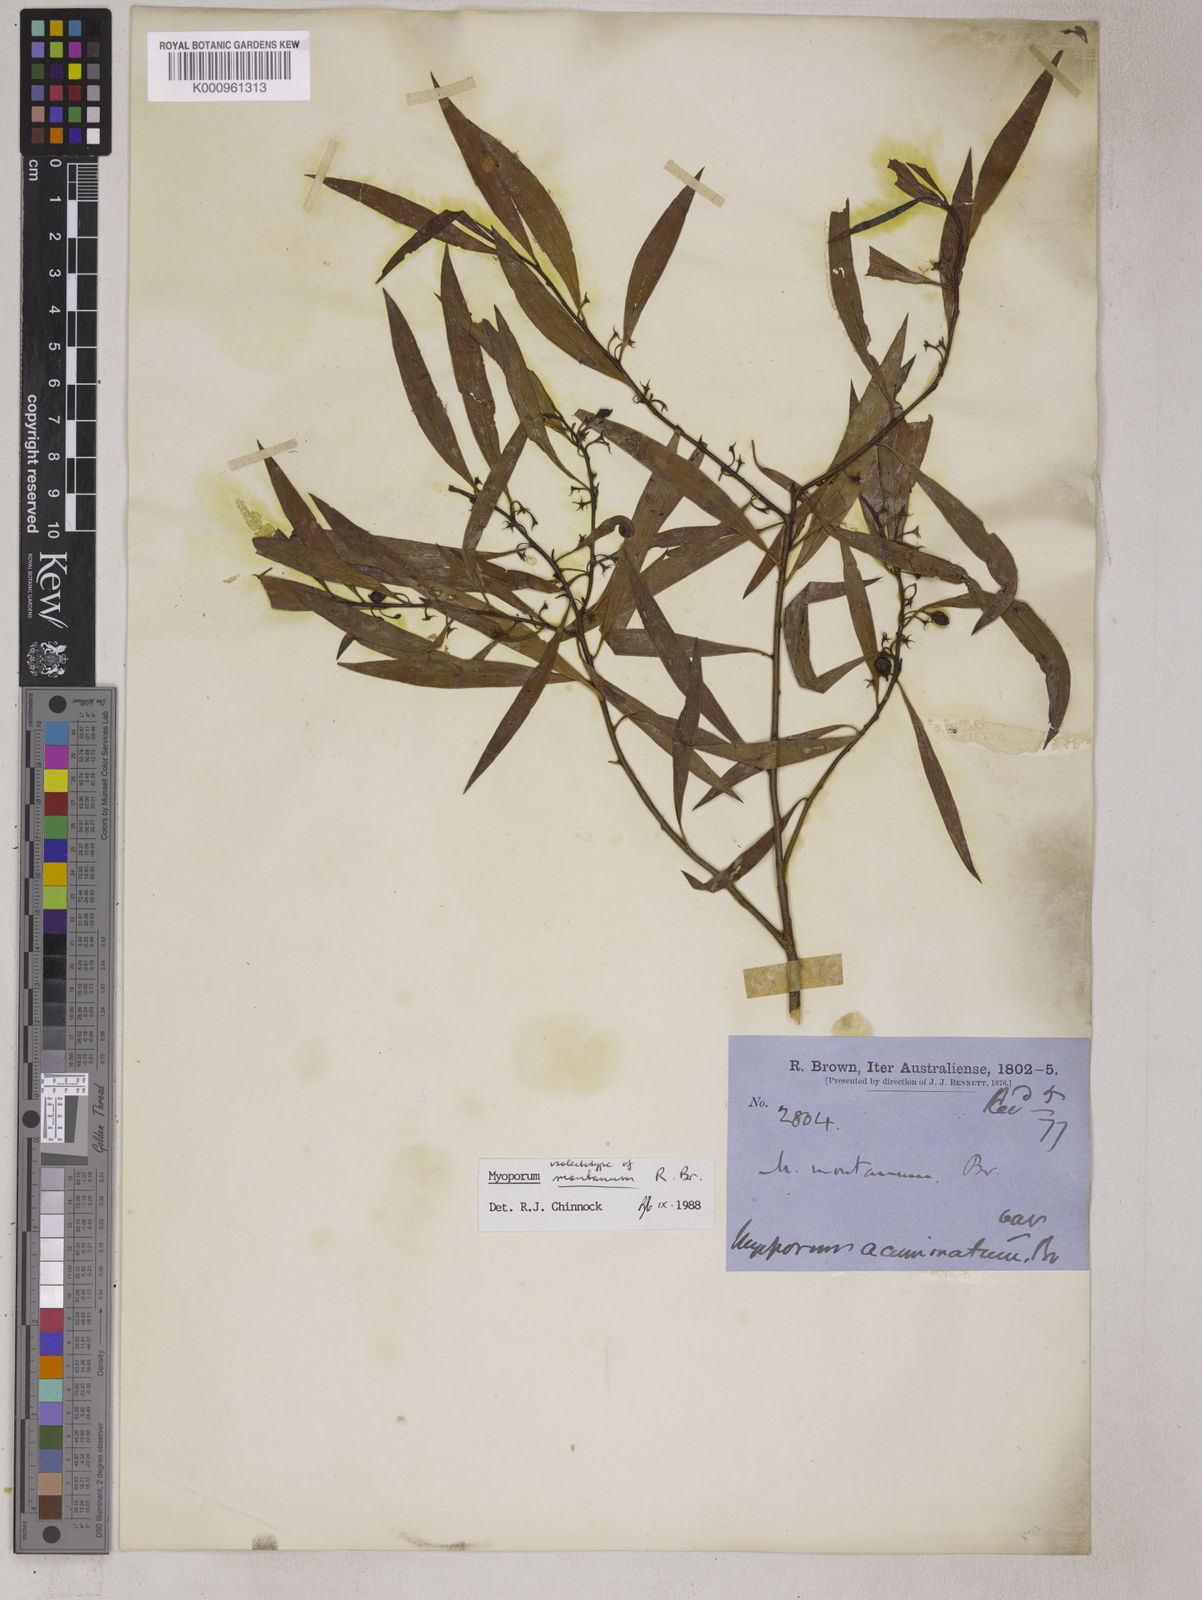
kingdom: Plantae
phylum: Tracheophyta
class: Magnoliopsida
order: Lamiales
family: Scrophulariaceae
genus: Myoporum
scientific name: Myoporum montanum
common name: Waterbush
